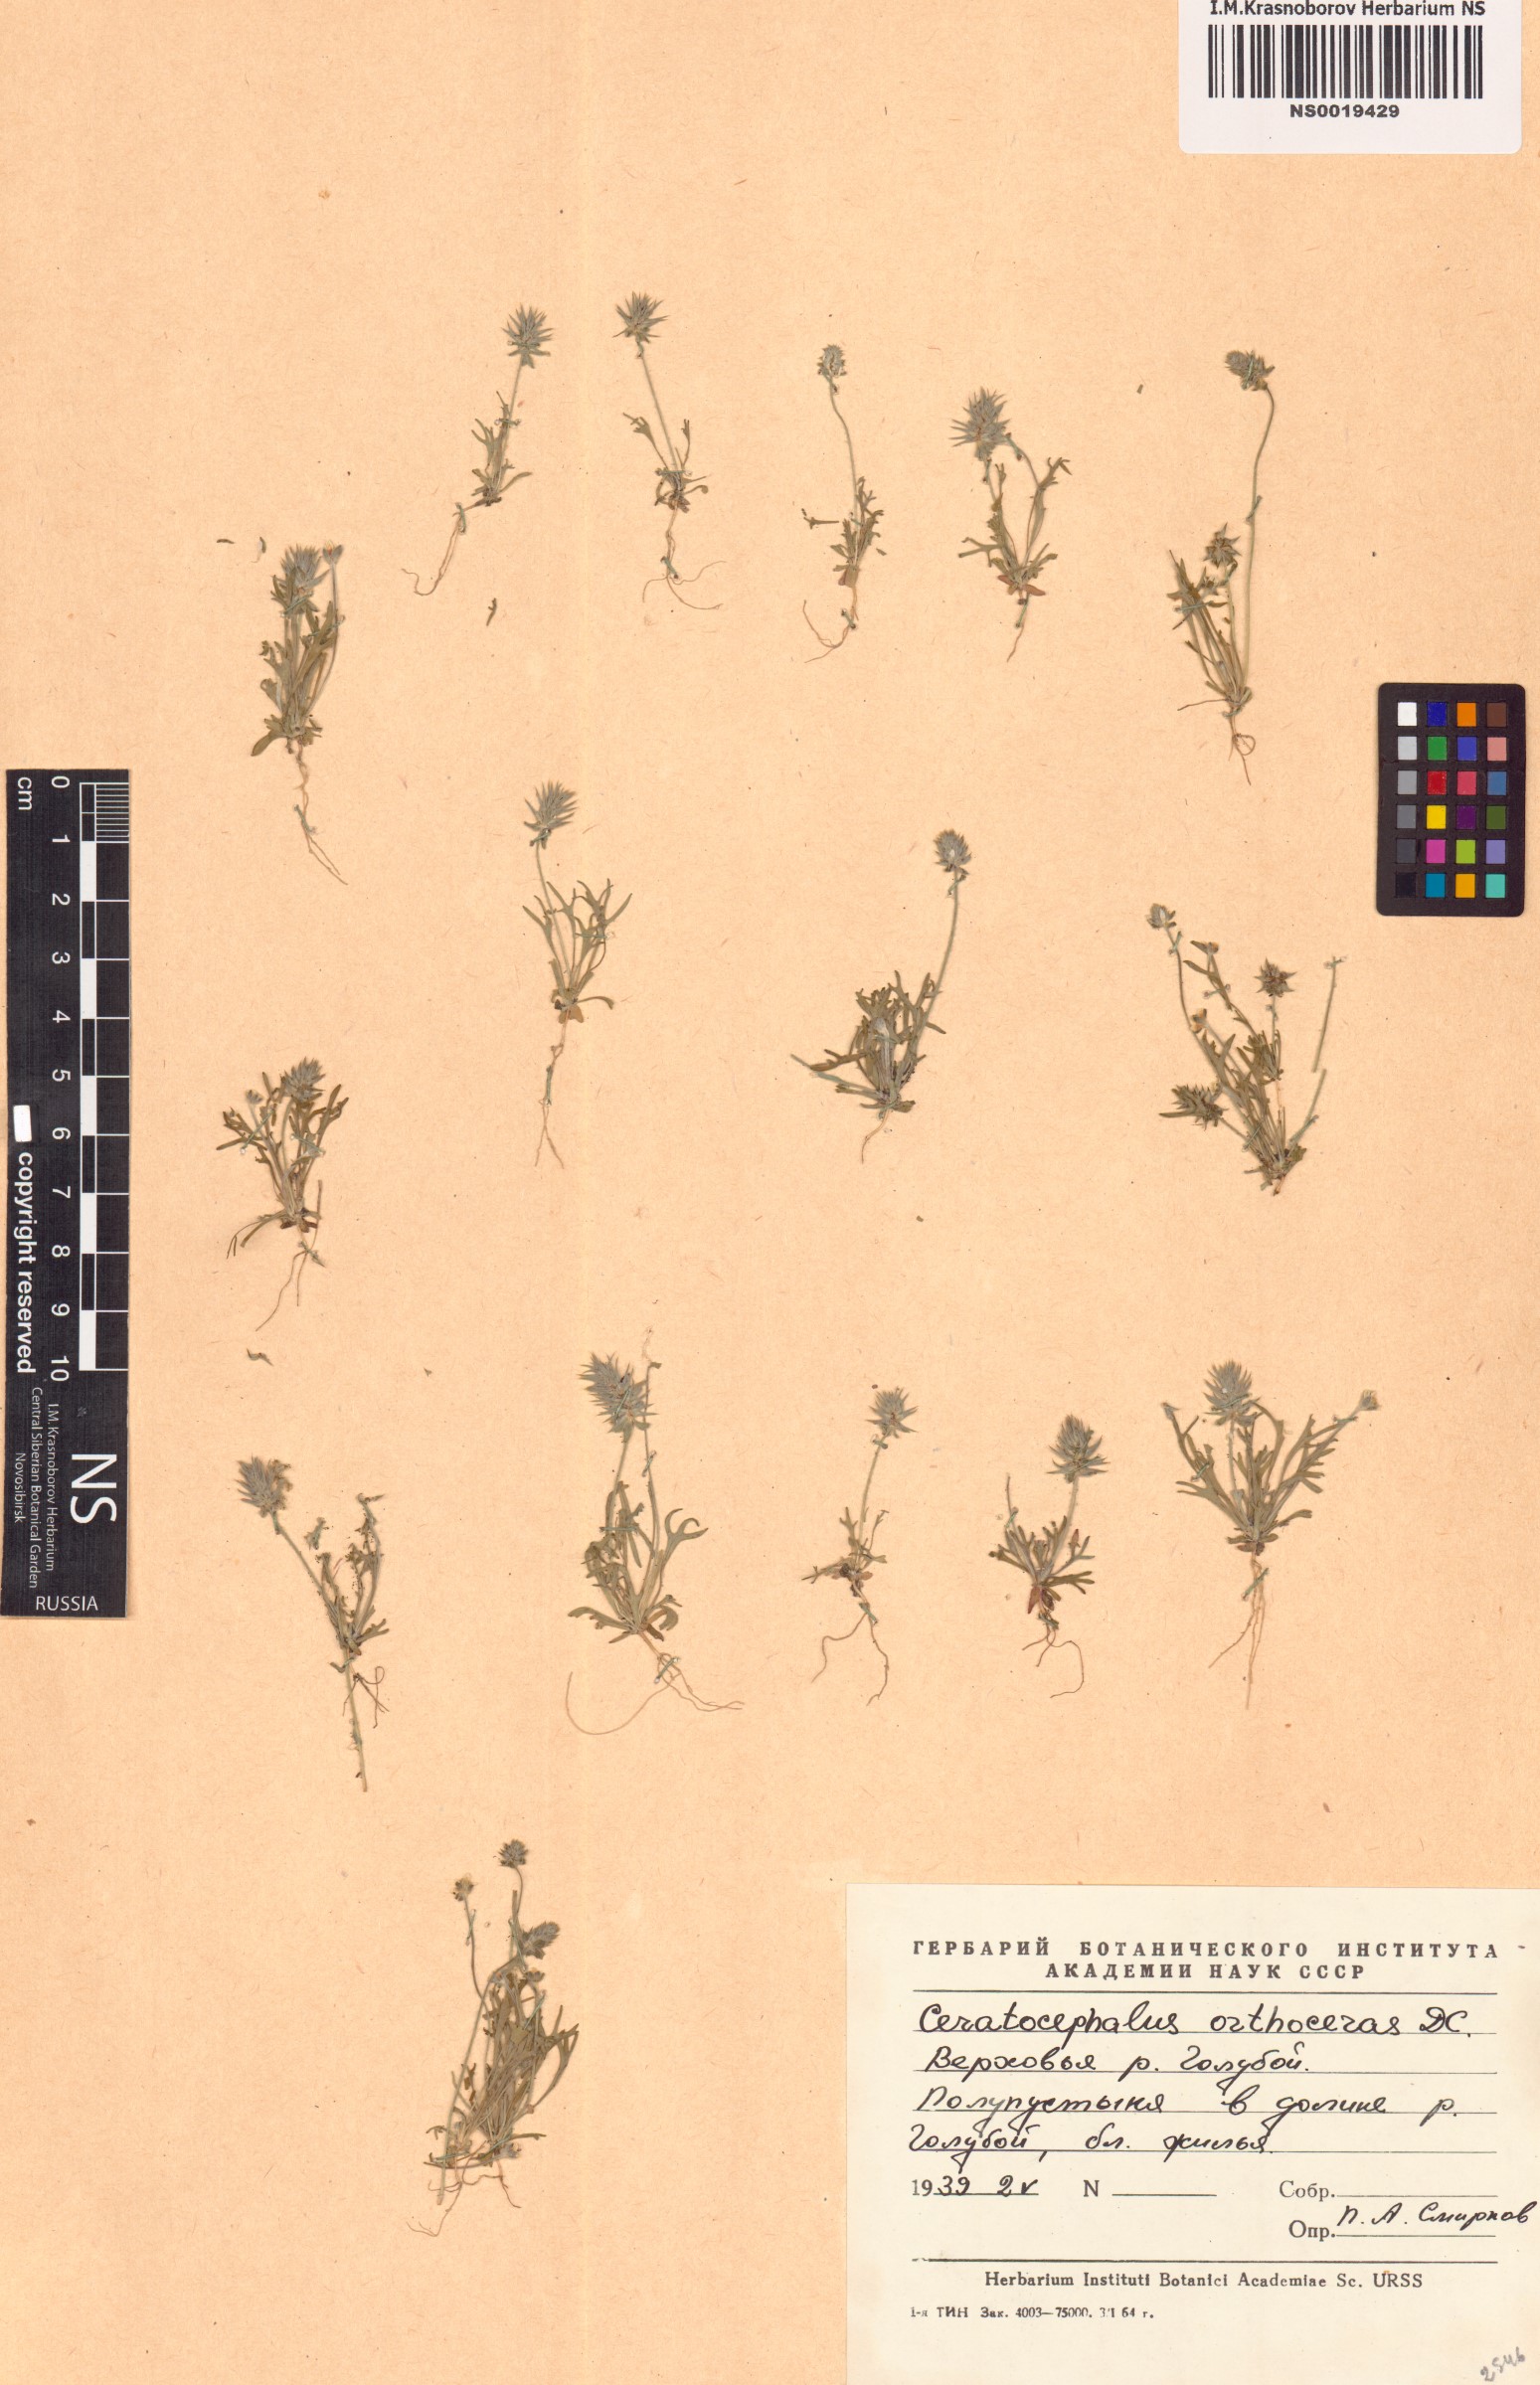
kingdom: Plantae
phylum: Tracheophyta
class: Magnoliopsida
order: Ranunculales
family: Ranunculaceae
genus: Ceratocephala
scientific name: Ceratocephala orthoceras
